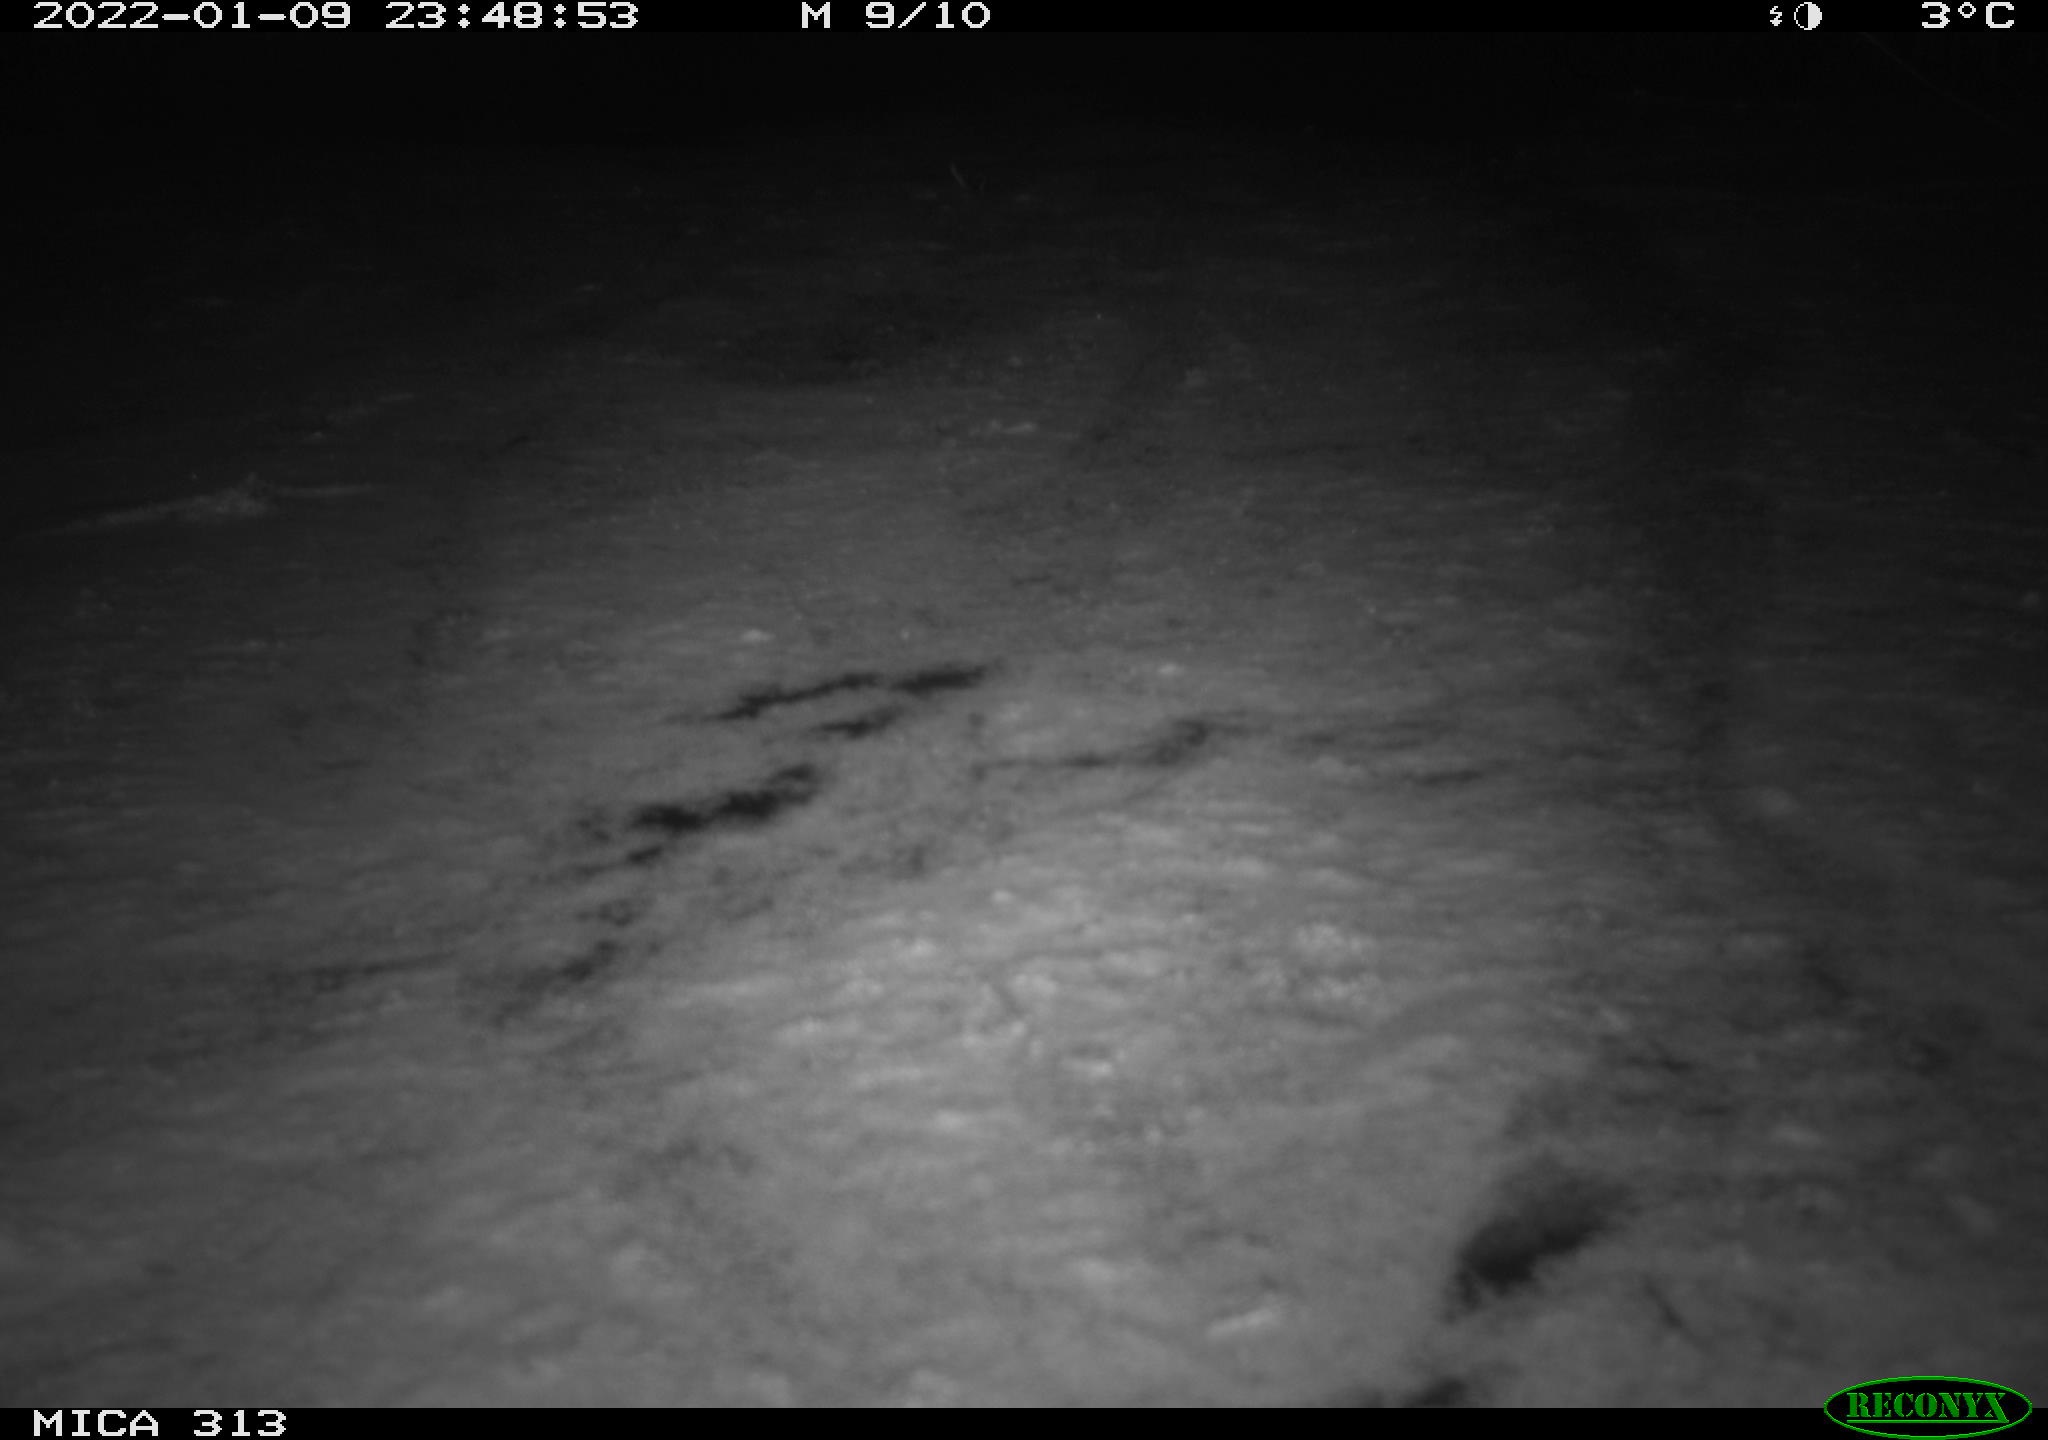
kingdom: Animalia
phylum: Chordata
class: Aves
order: Gruiformes
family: Rallidae
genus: Gallinula
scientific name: Gallinula chloropus
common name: Common moorhen
